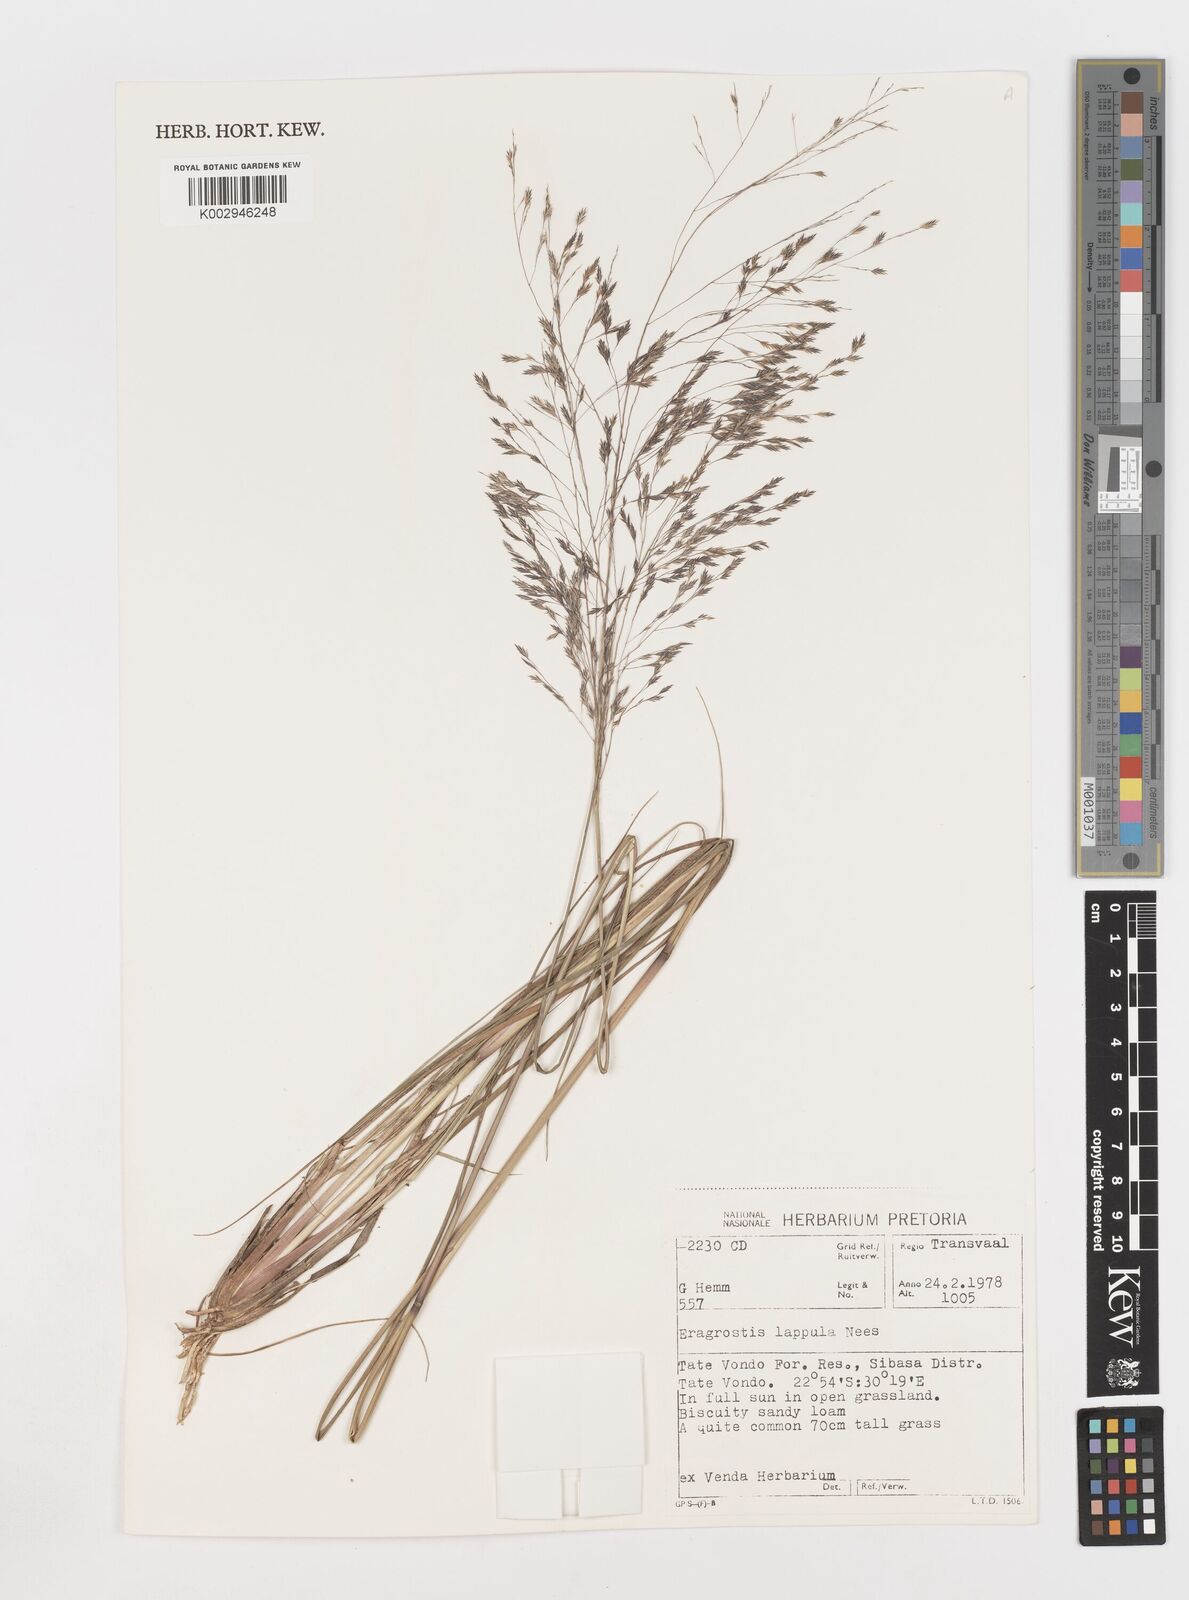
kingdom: Plantae
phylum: Tracheophyta
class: Liliopsida
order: Poales
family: Poaceae
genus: Eragrostis
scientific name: Eragrostis lappula
